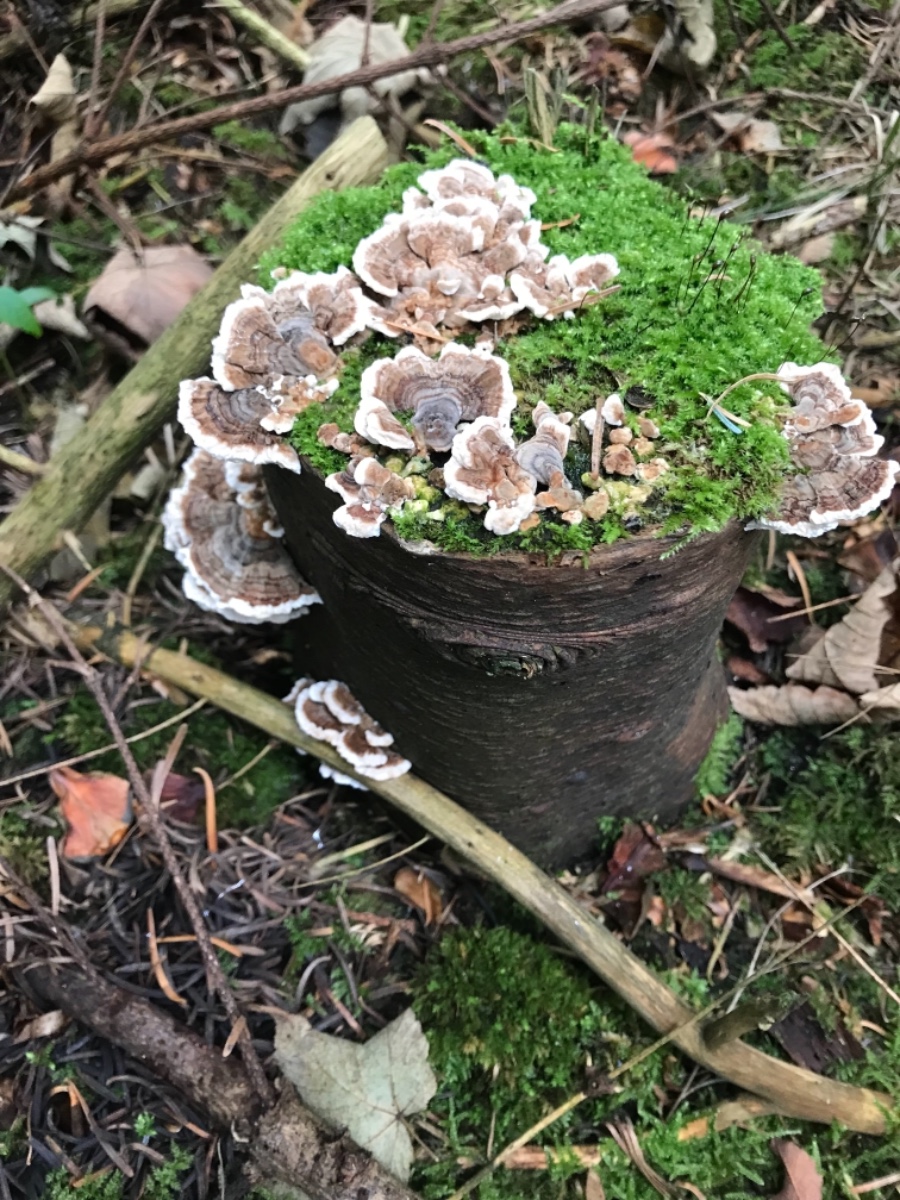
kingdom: Fungi
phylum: Basidiomycota
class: Agaricomycetes
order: Polyporales
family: Polyporaceae
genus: Trametes
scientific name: Trametes versicolor
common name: broget læderporesvamp
